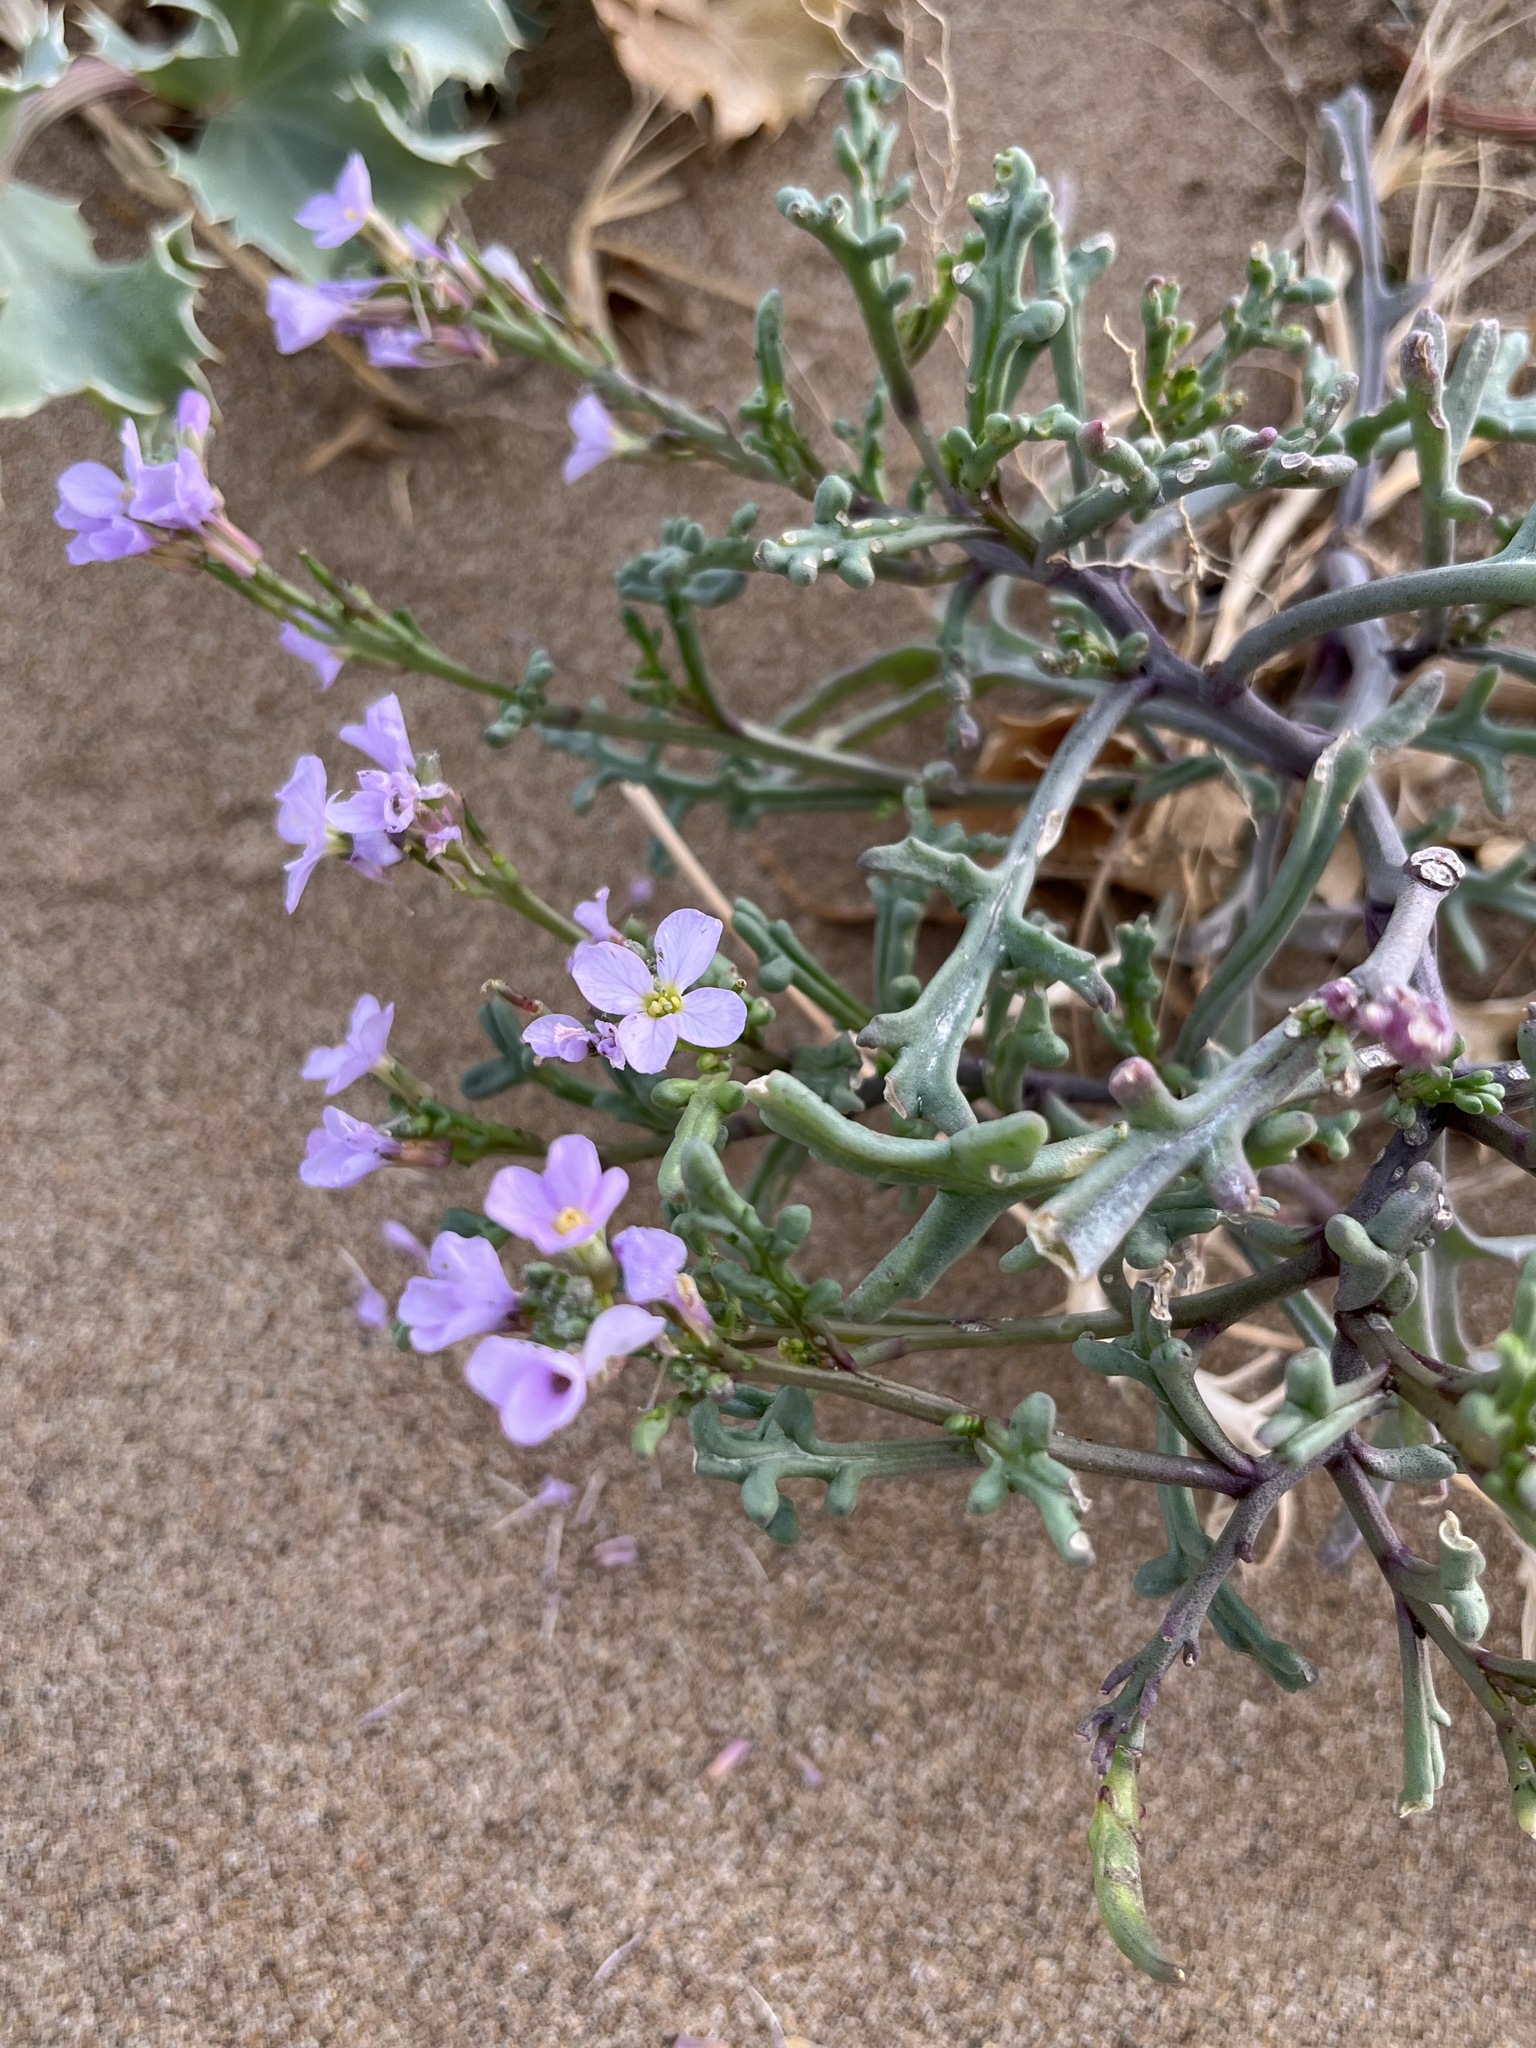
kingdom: Plantae
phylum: Tracheophyta
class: Magnoliopsida
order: Brassicales
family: Brassicaceae
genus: Cakile
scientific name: Cakile maritima
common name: Sea rocket
